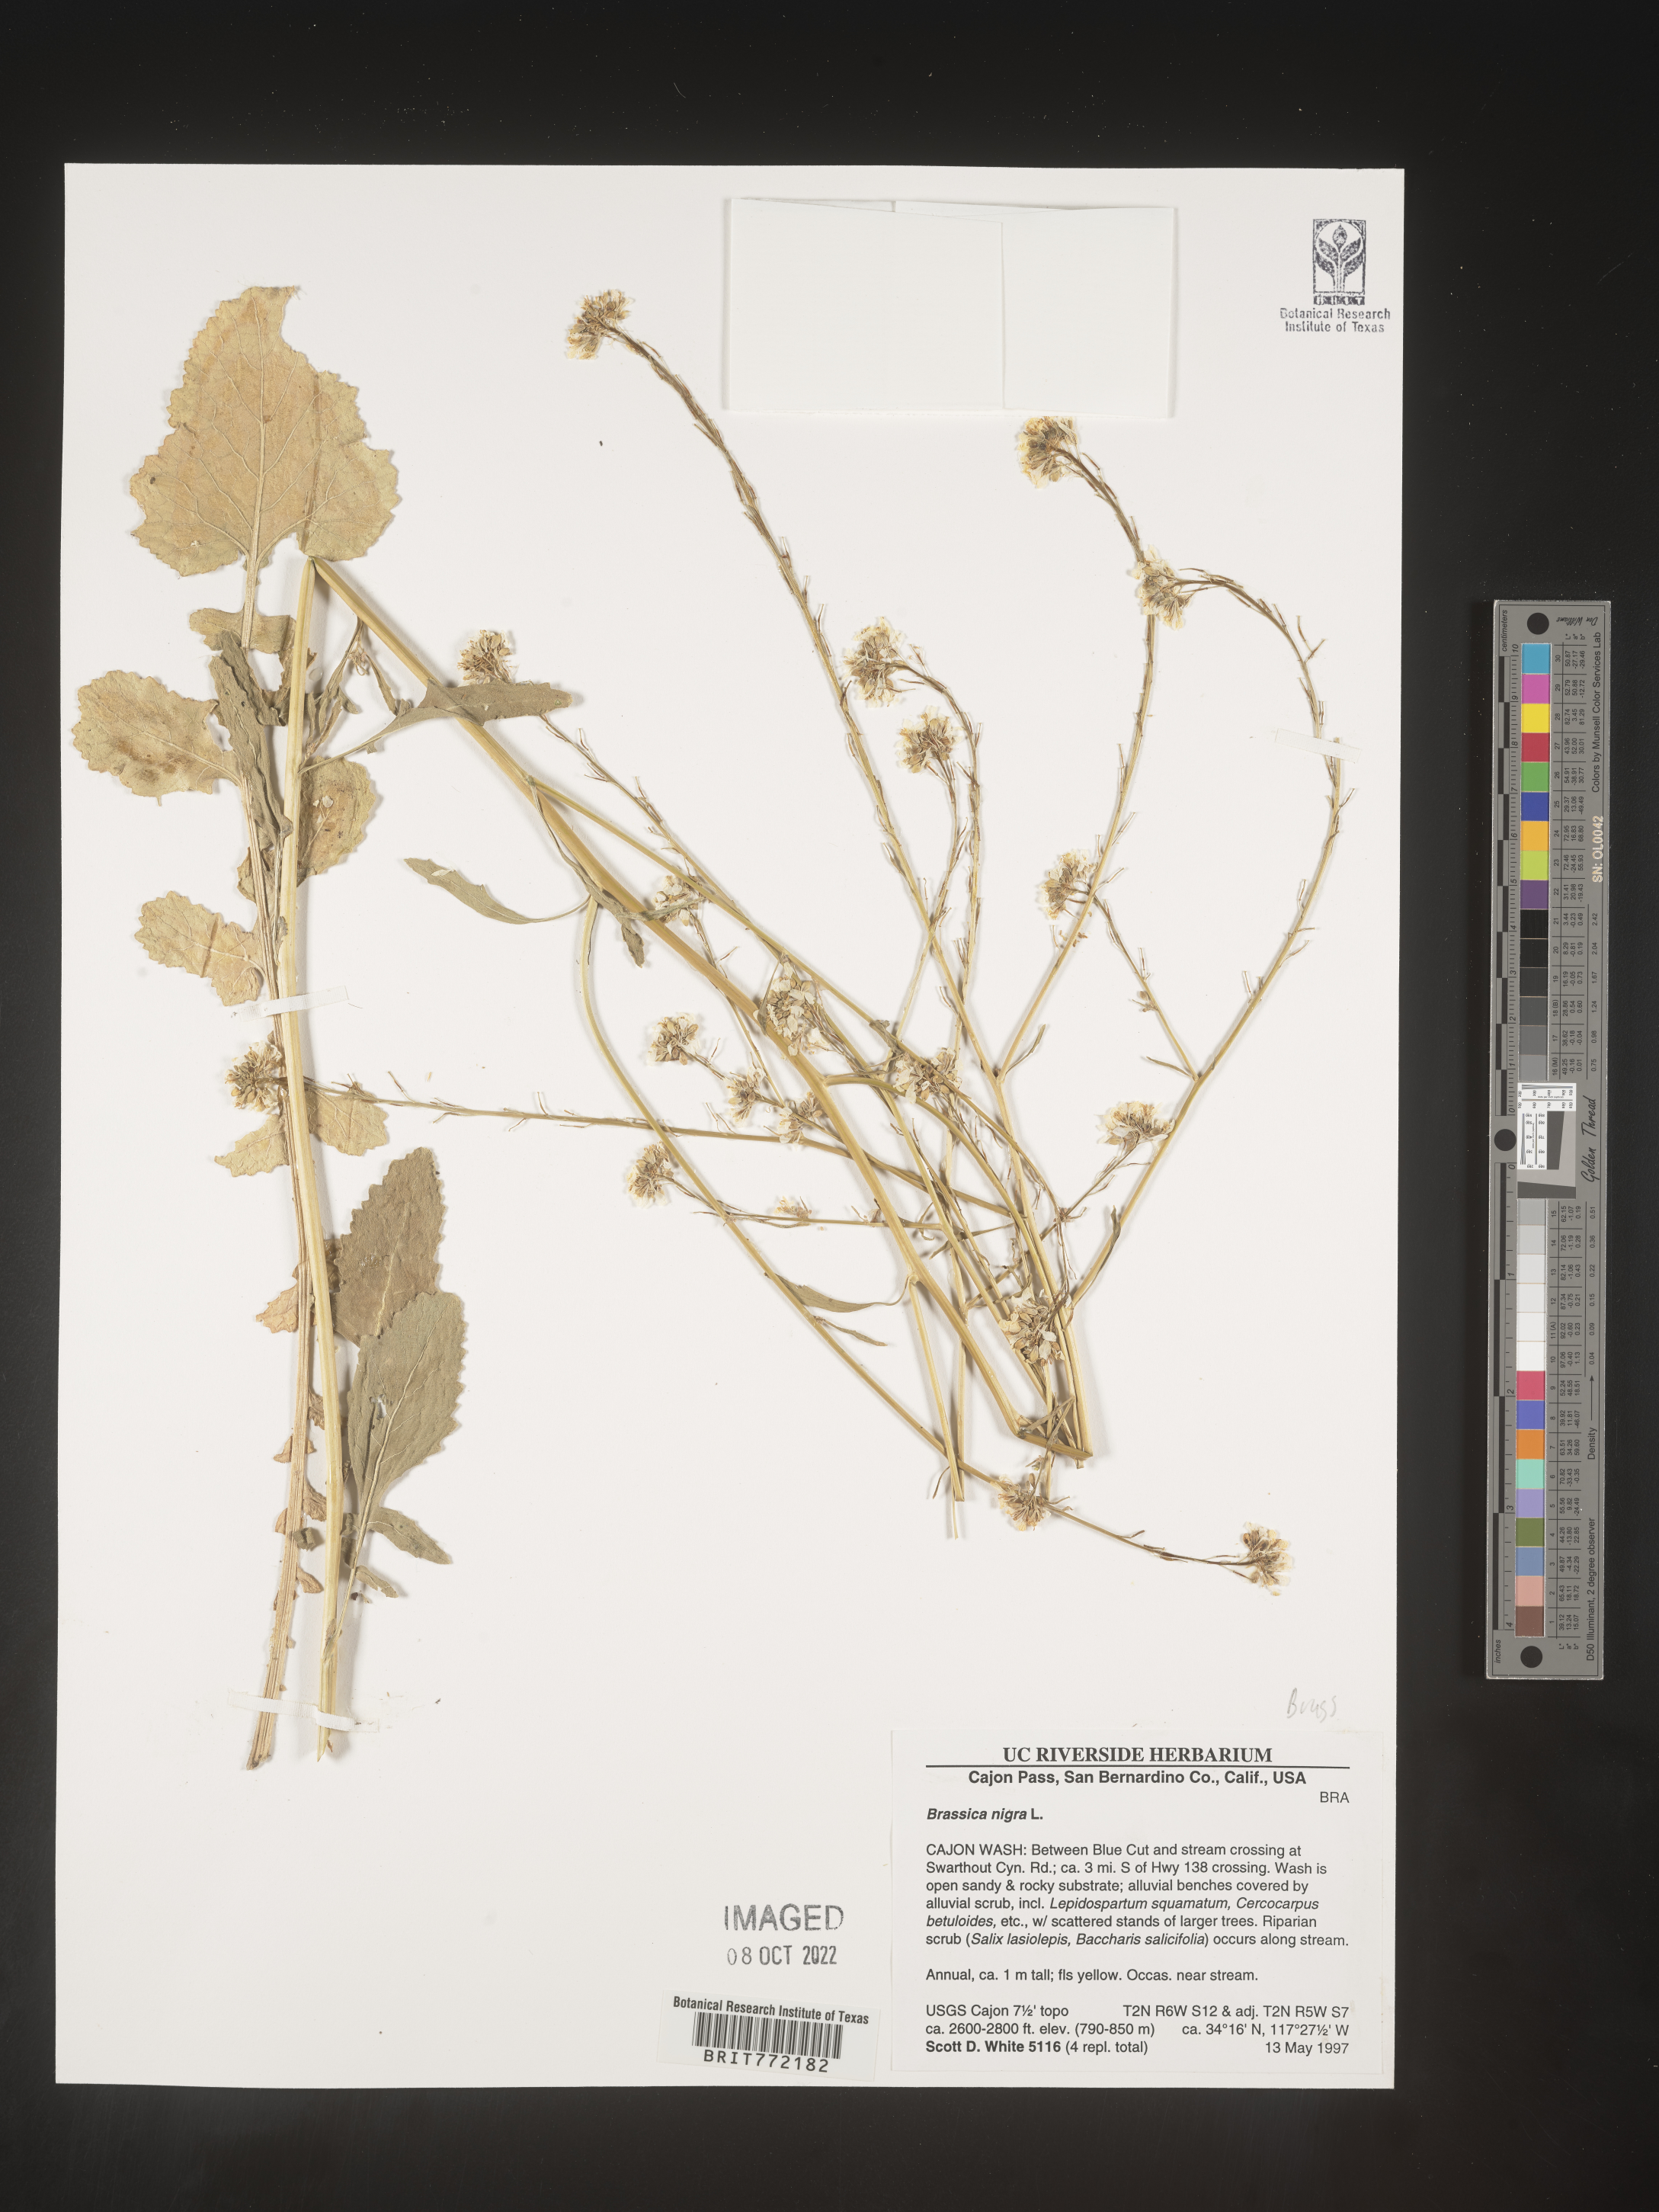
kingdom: Plantae
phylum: Tracheophyta
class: Magnoliopsida
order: Brassicales
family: Brassicaceae
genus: Brassica
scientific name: Brassica nigra
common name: Black mustard
